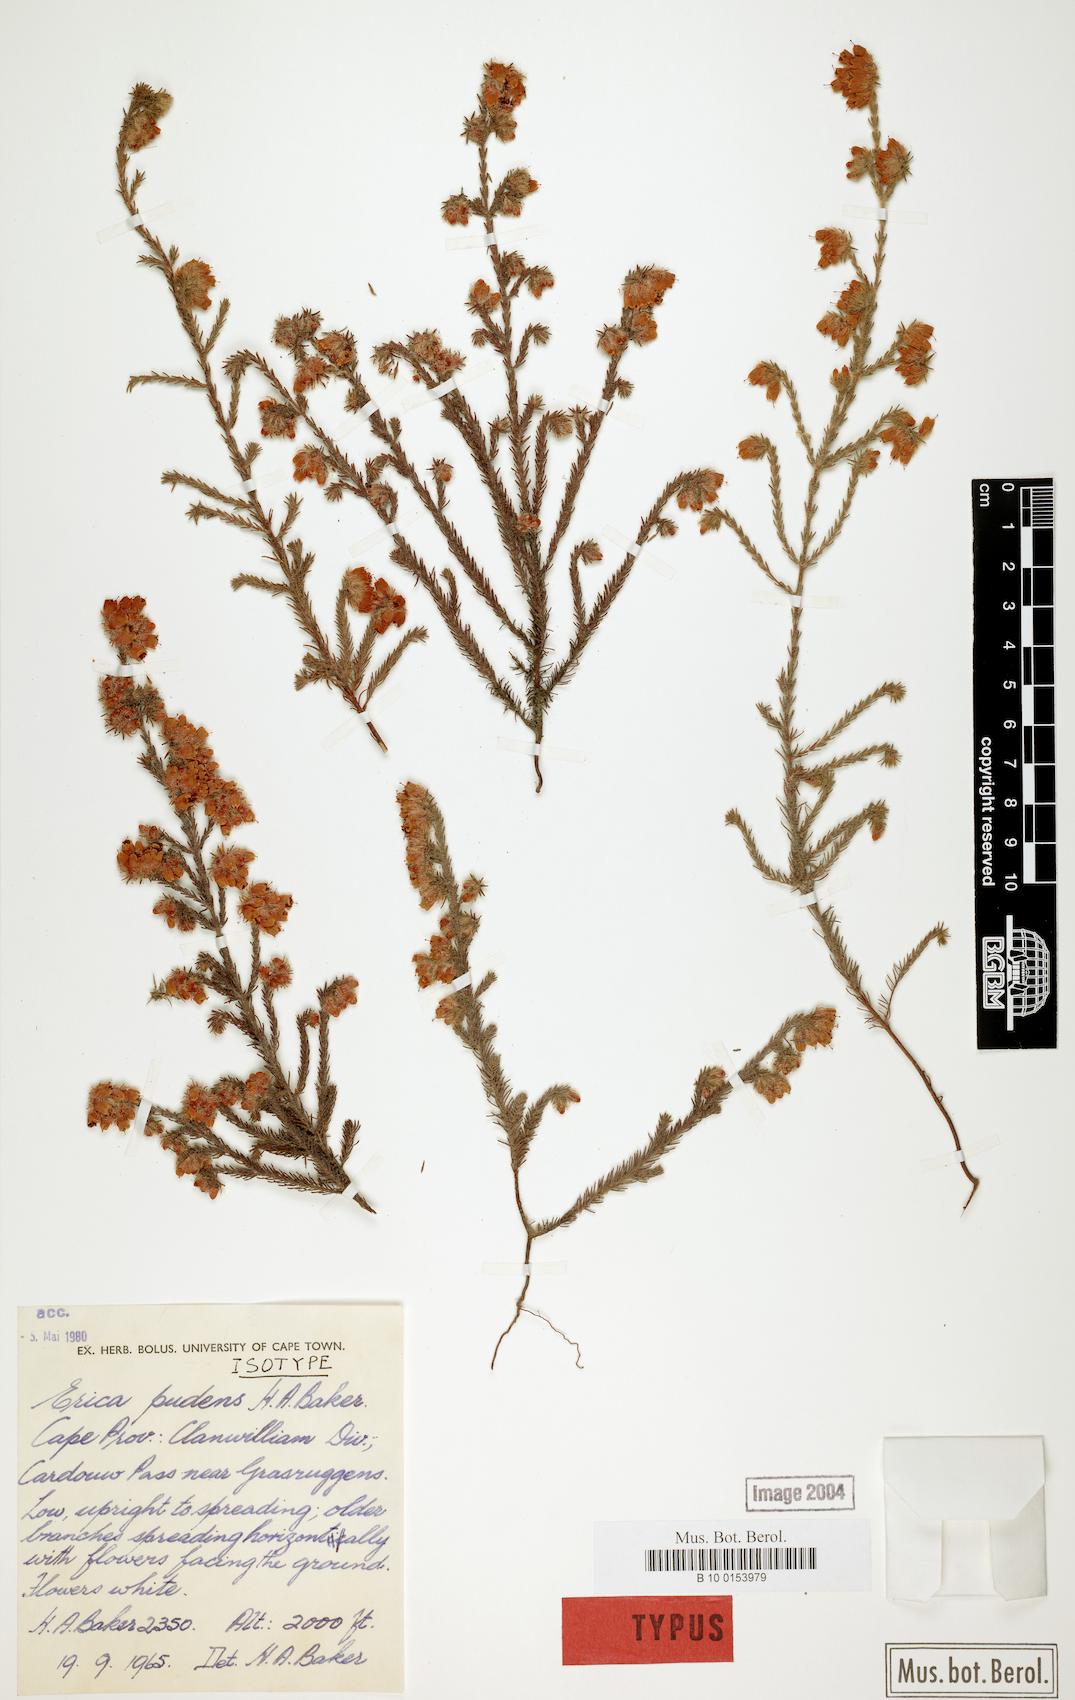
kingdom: Plantae
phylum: Tracheophyta
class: Magnoliopsida
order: Ericales
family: Ericaceae
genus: Erica
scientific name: Erica pudens
